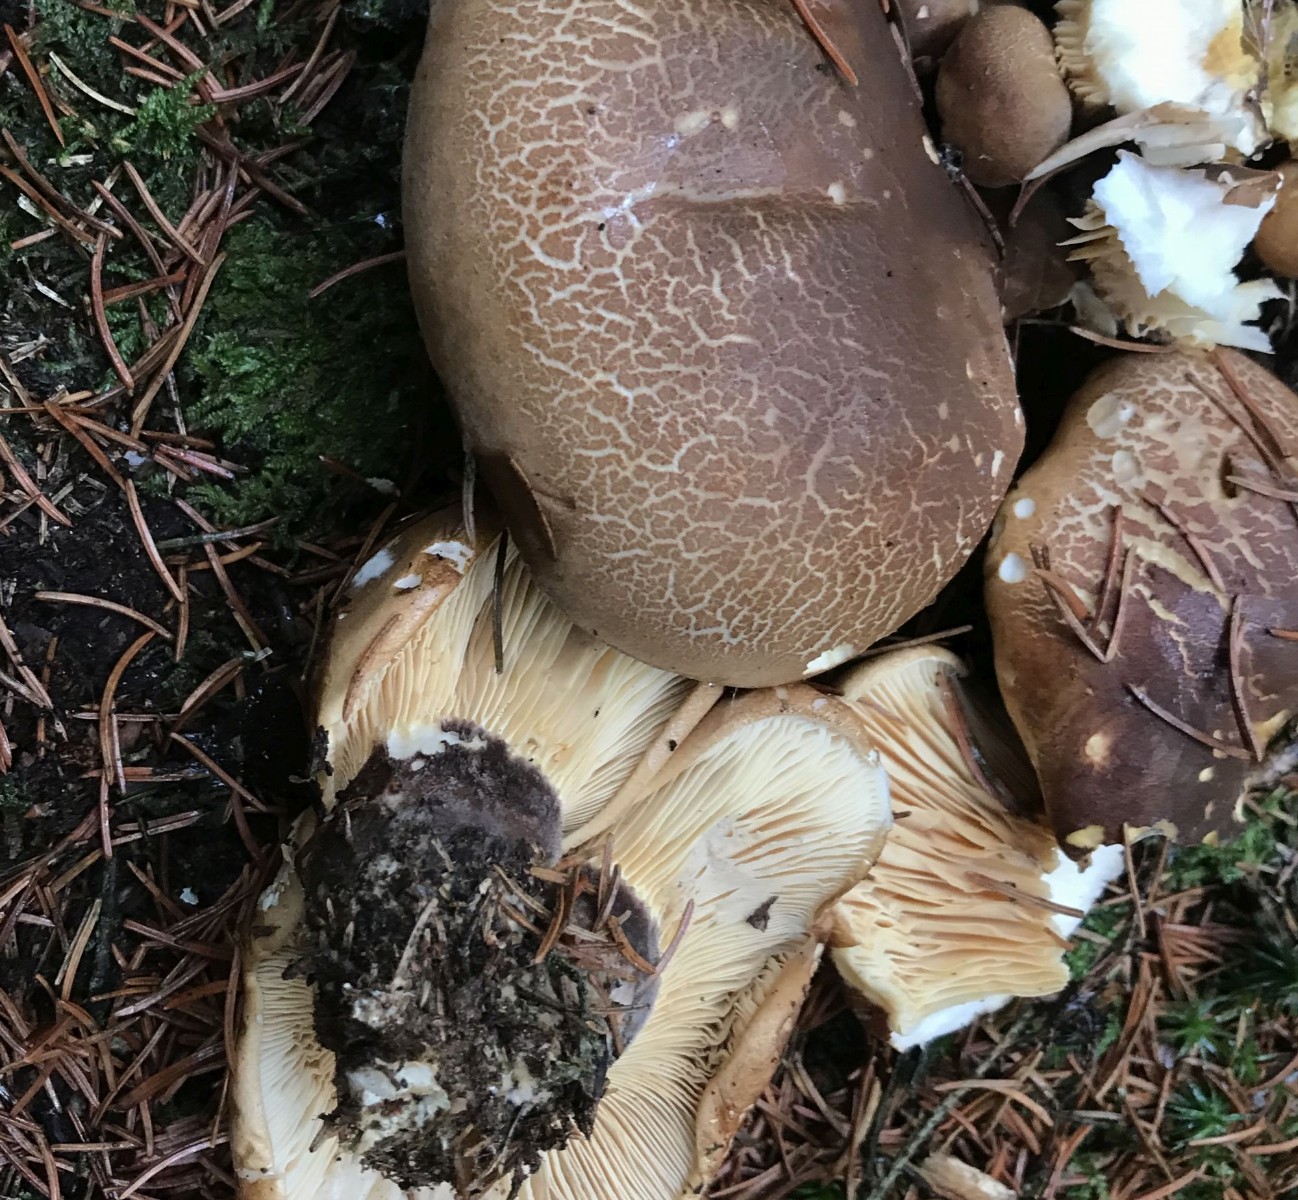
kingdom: Fungi
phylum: Basidiomycota
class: Agaricomycetes
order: Boletales
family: Tapinellaceae
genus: Tapinella
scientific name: Tapinella atrotomentosa
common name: sortfiltet viftesvamp
